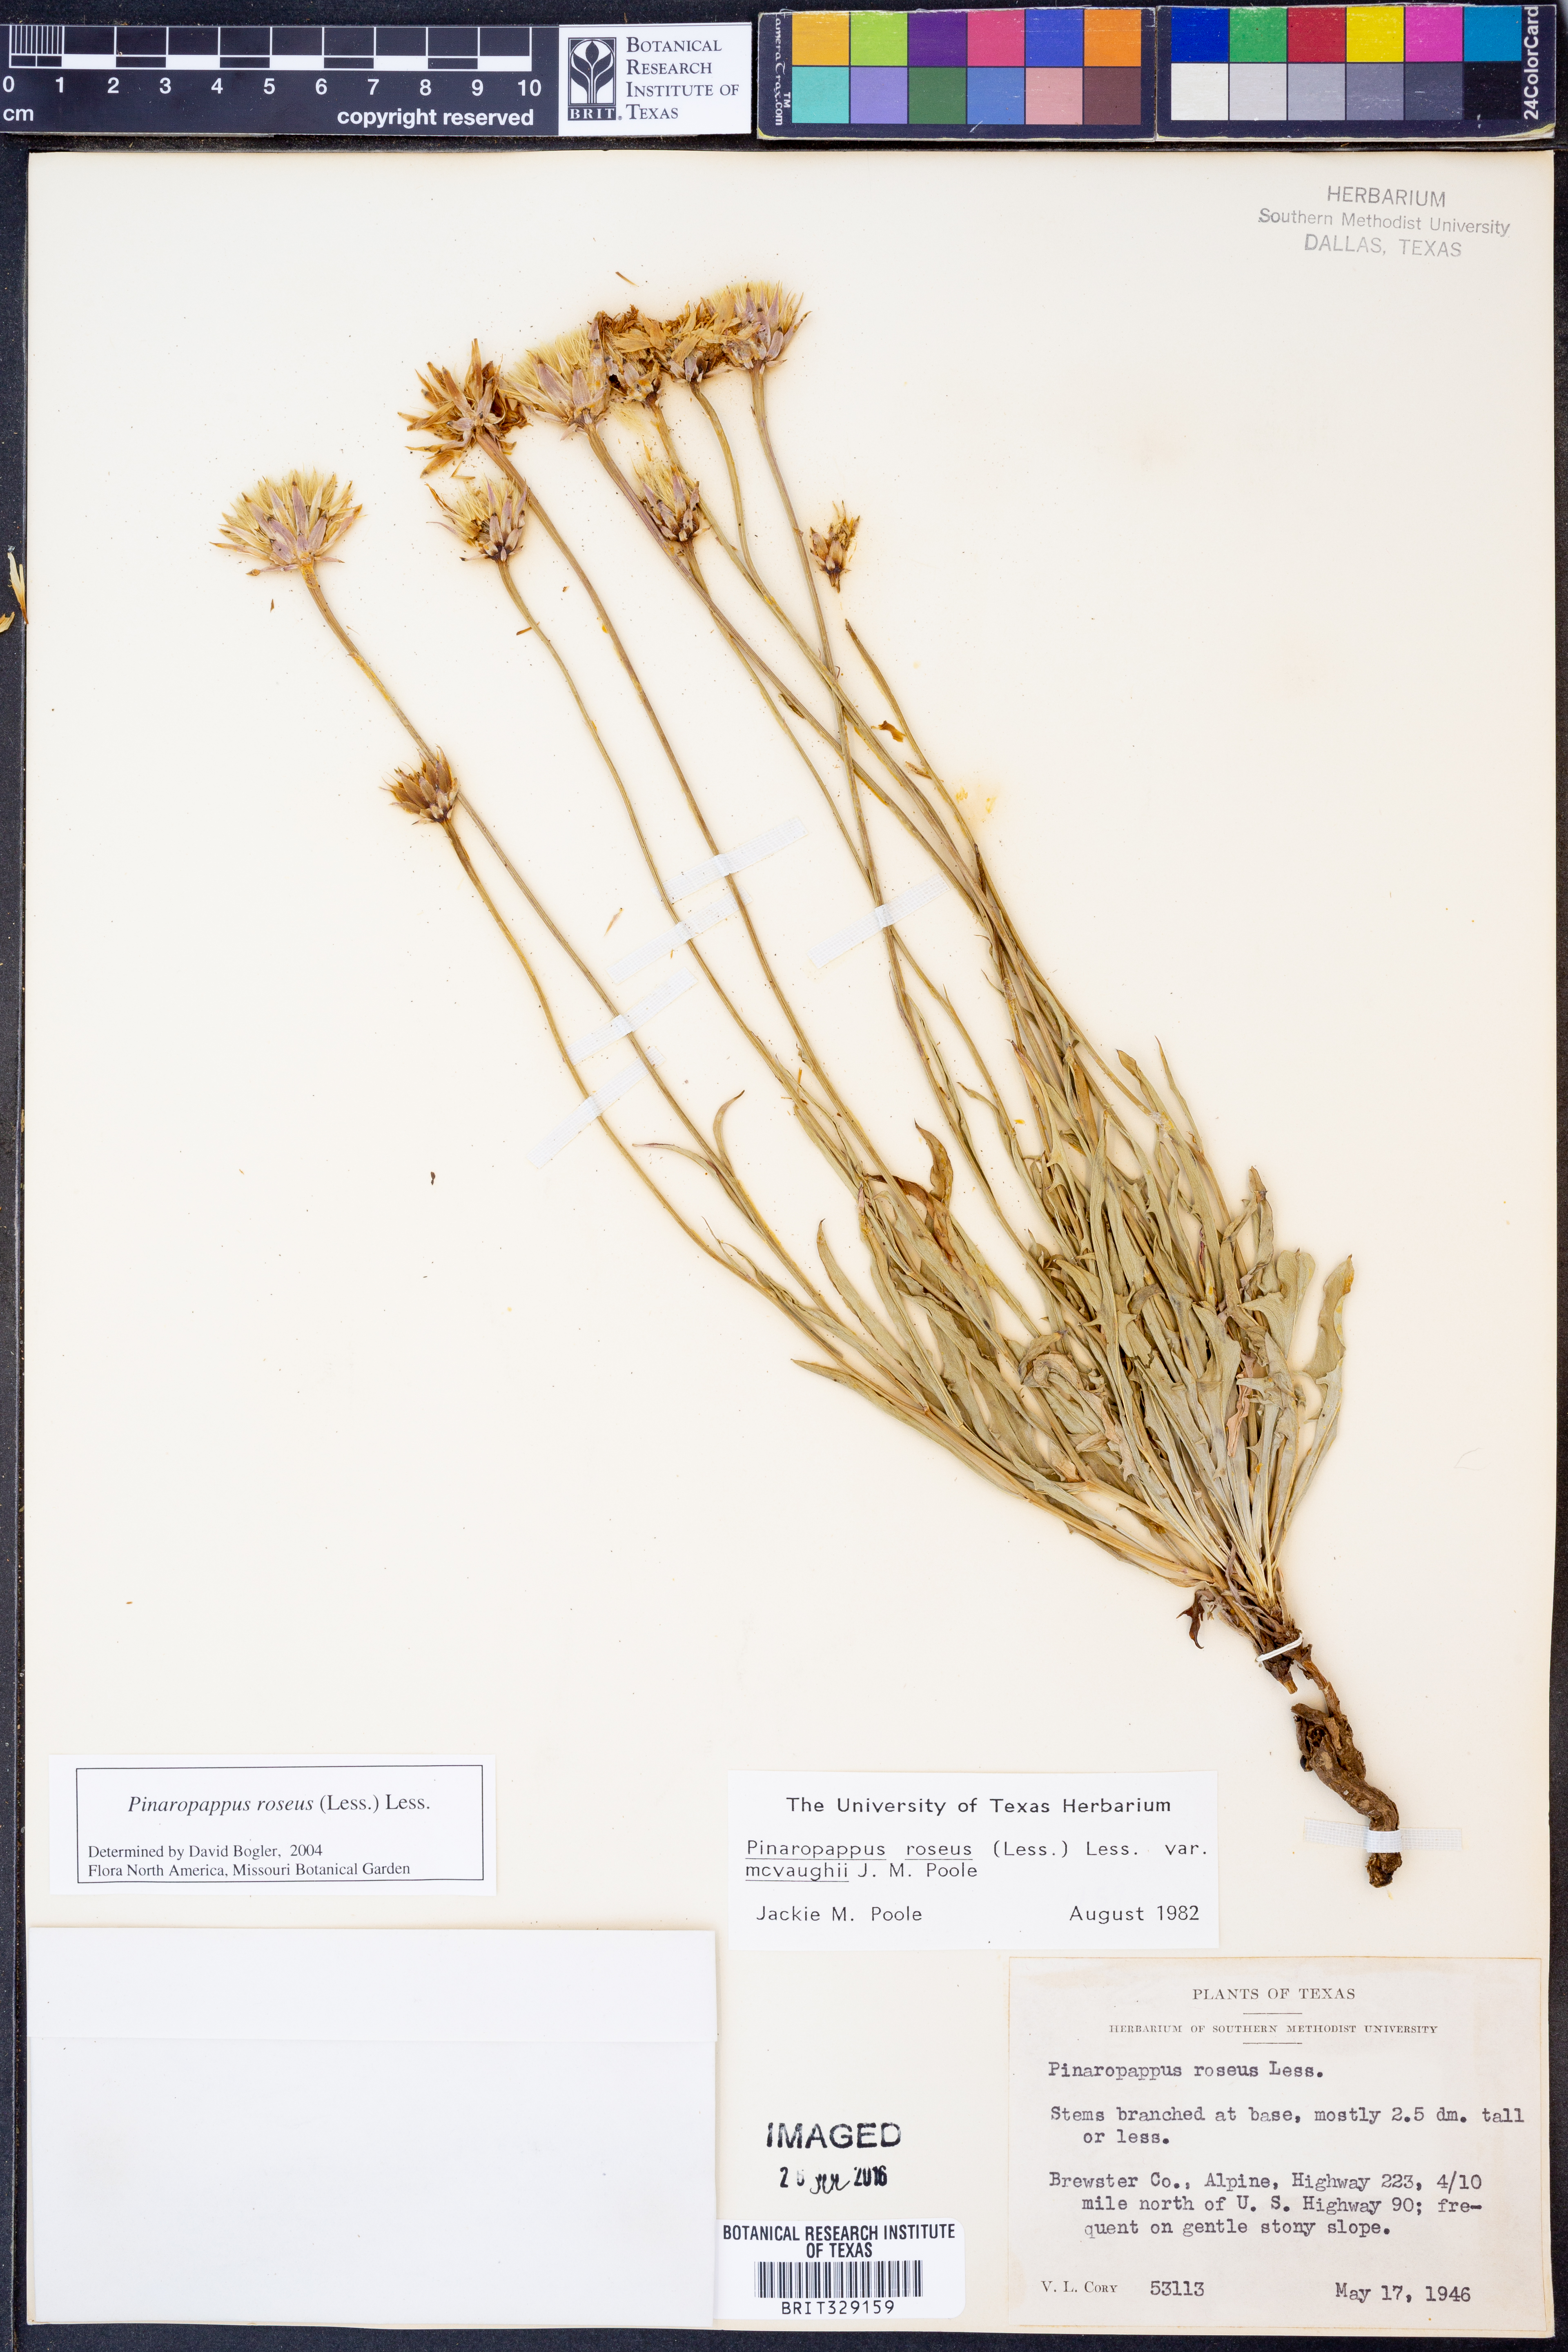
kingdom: Plantae
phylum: Tracheophyta
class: Magnoliopsida
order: Asterales
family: Asteraceae
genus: Pinaropappus
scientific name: Pinaropappus roseus
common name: Rock-lettuce
